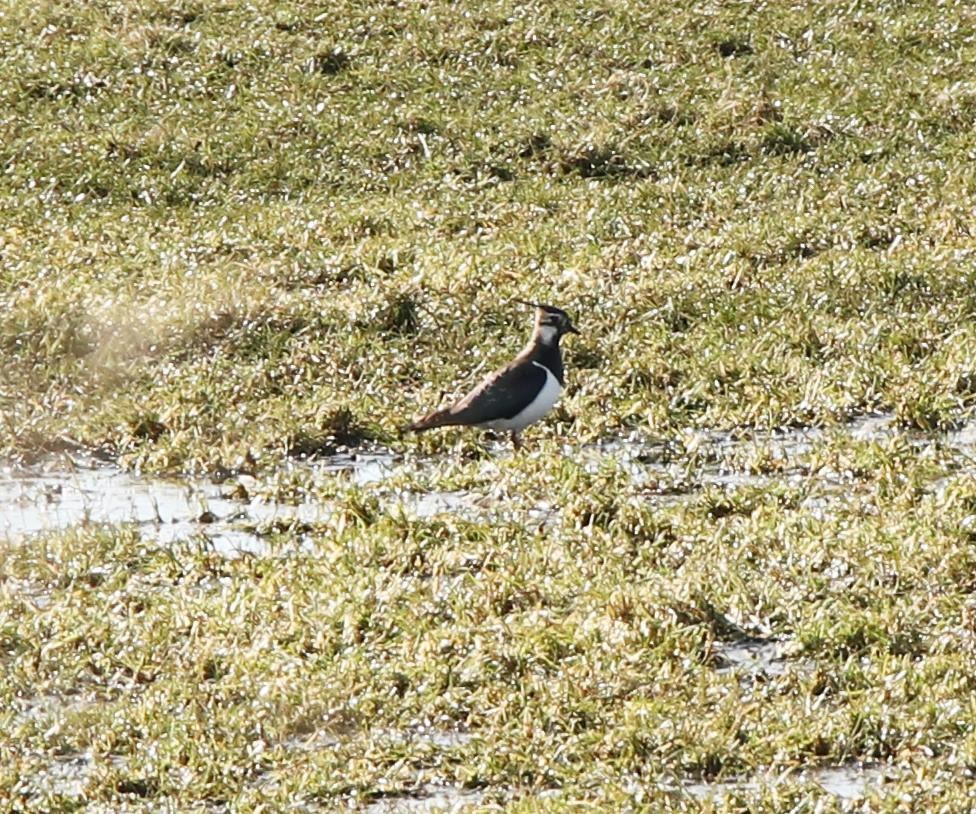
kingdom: Animalia
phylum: Chordata
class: Aves
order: Charadriiformes
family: Charadriidae
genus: Vanellus
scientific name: Vanellus vanellus
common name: Vibe
